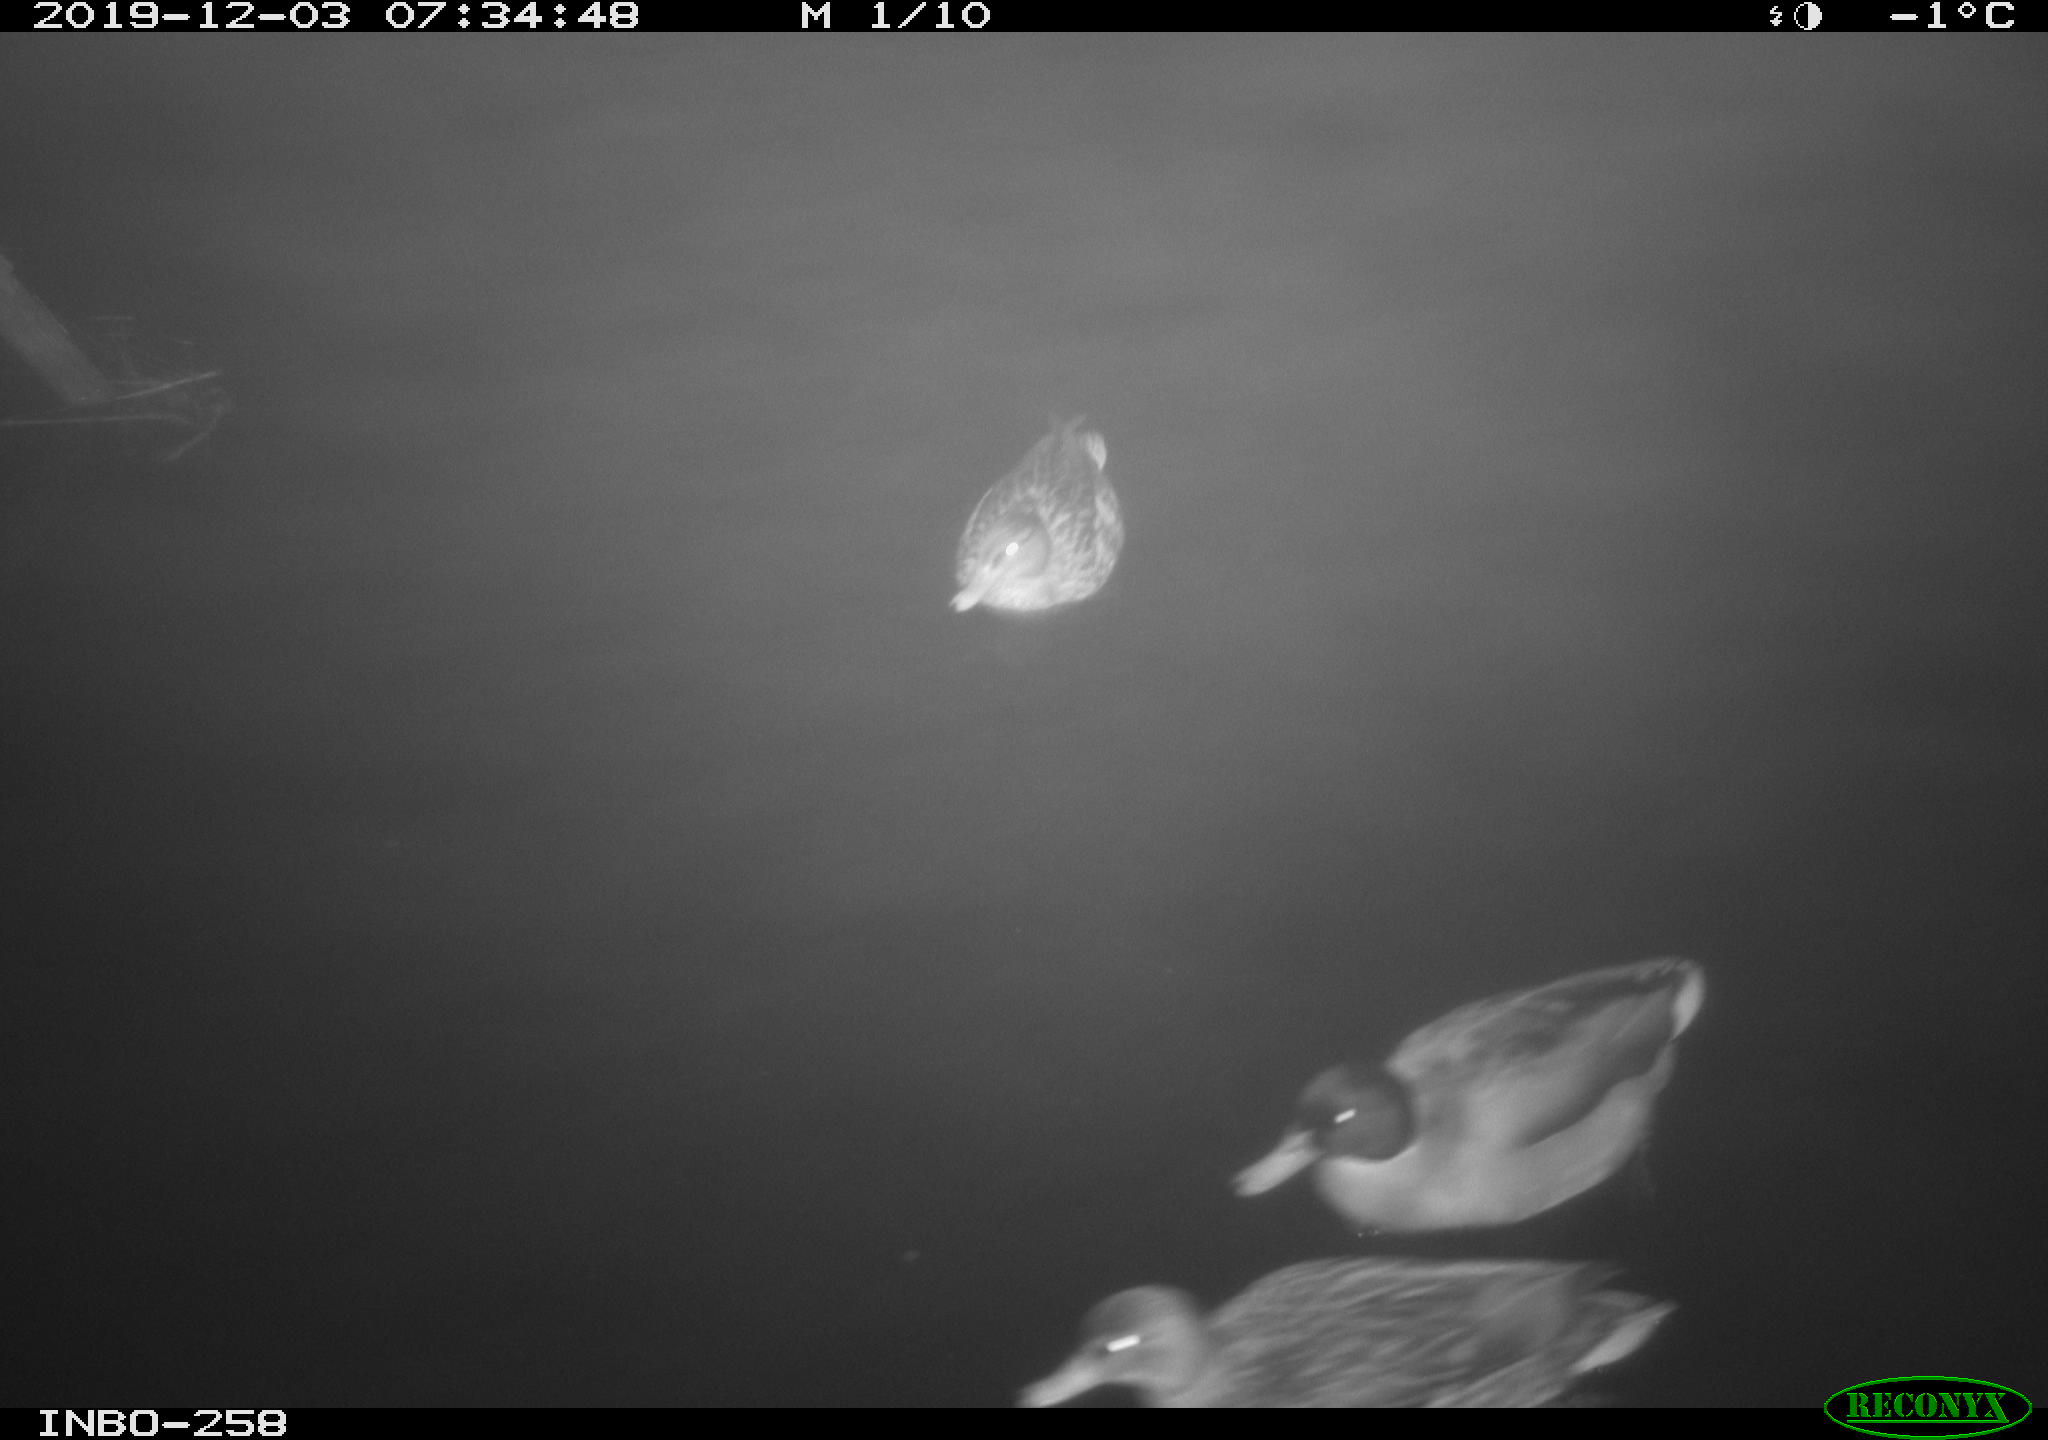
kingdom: Animalia
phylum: Chordata
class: Aves
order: Anseriformes
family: Anatidae
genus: Anas
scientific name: Anas platyrhynchos
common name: Mallard
